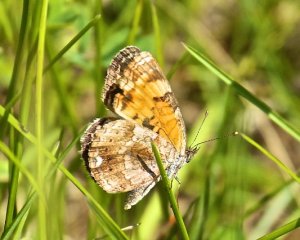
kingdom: Animalia
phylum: Arthropoda
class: Insecta
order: Lepidoptera
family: Nymphalidae
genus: Phyciodes
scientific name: Phyciodes tharos
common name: Northern Crescent
